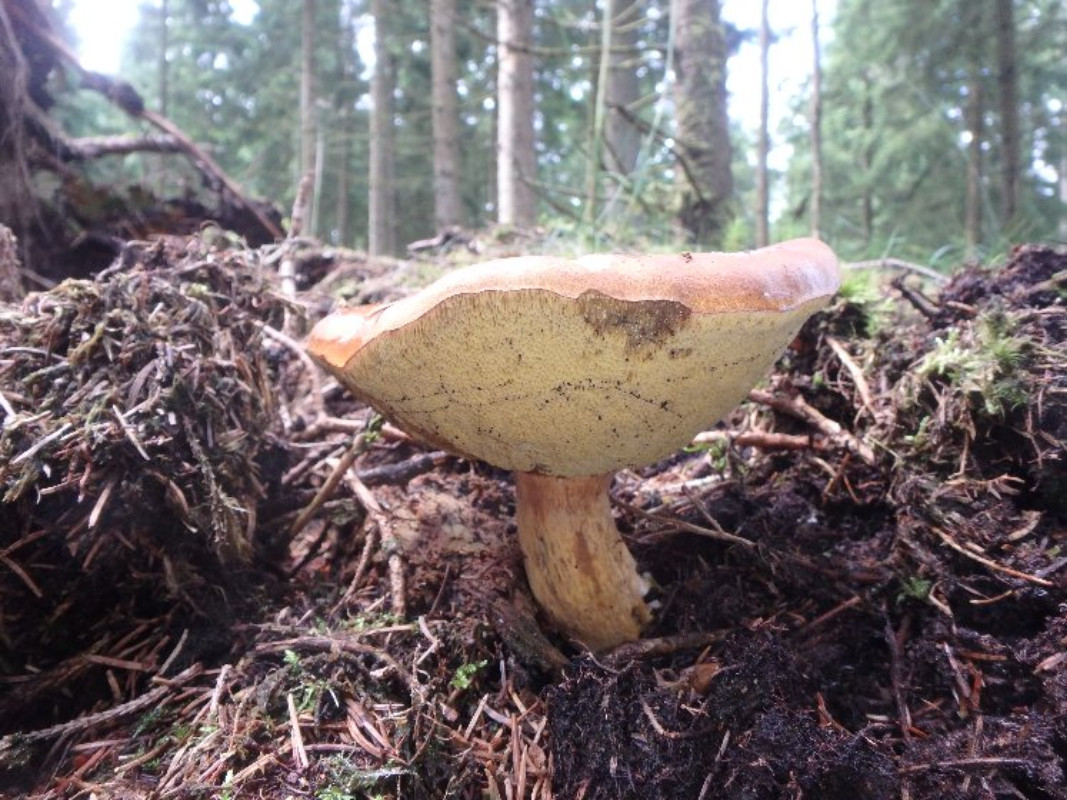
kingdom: Fungi
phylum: Basidiomycota
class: Agaricomycetes
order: Boletales
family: Boletaceae
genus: Imleria
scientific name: Imleria badia
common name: brunstokket rørhat
